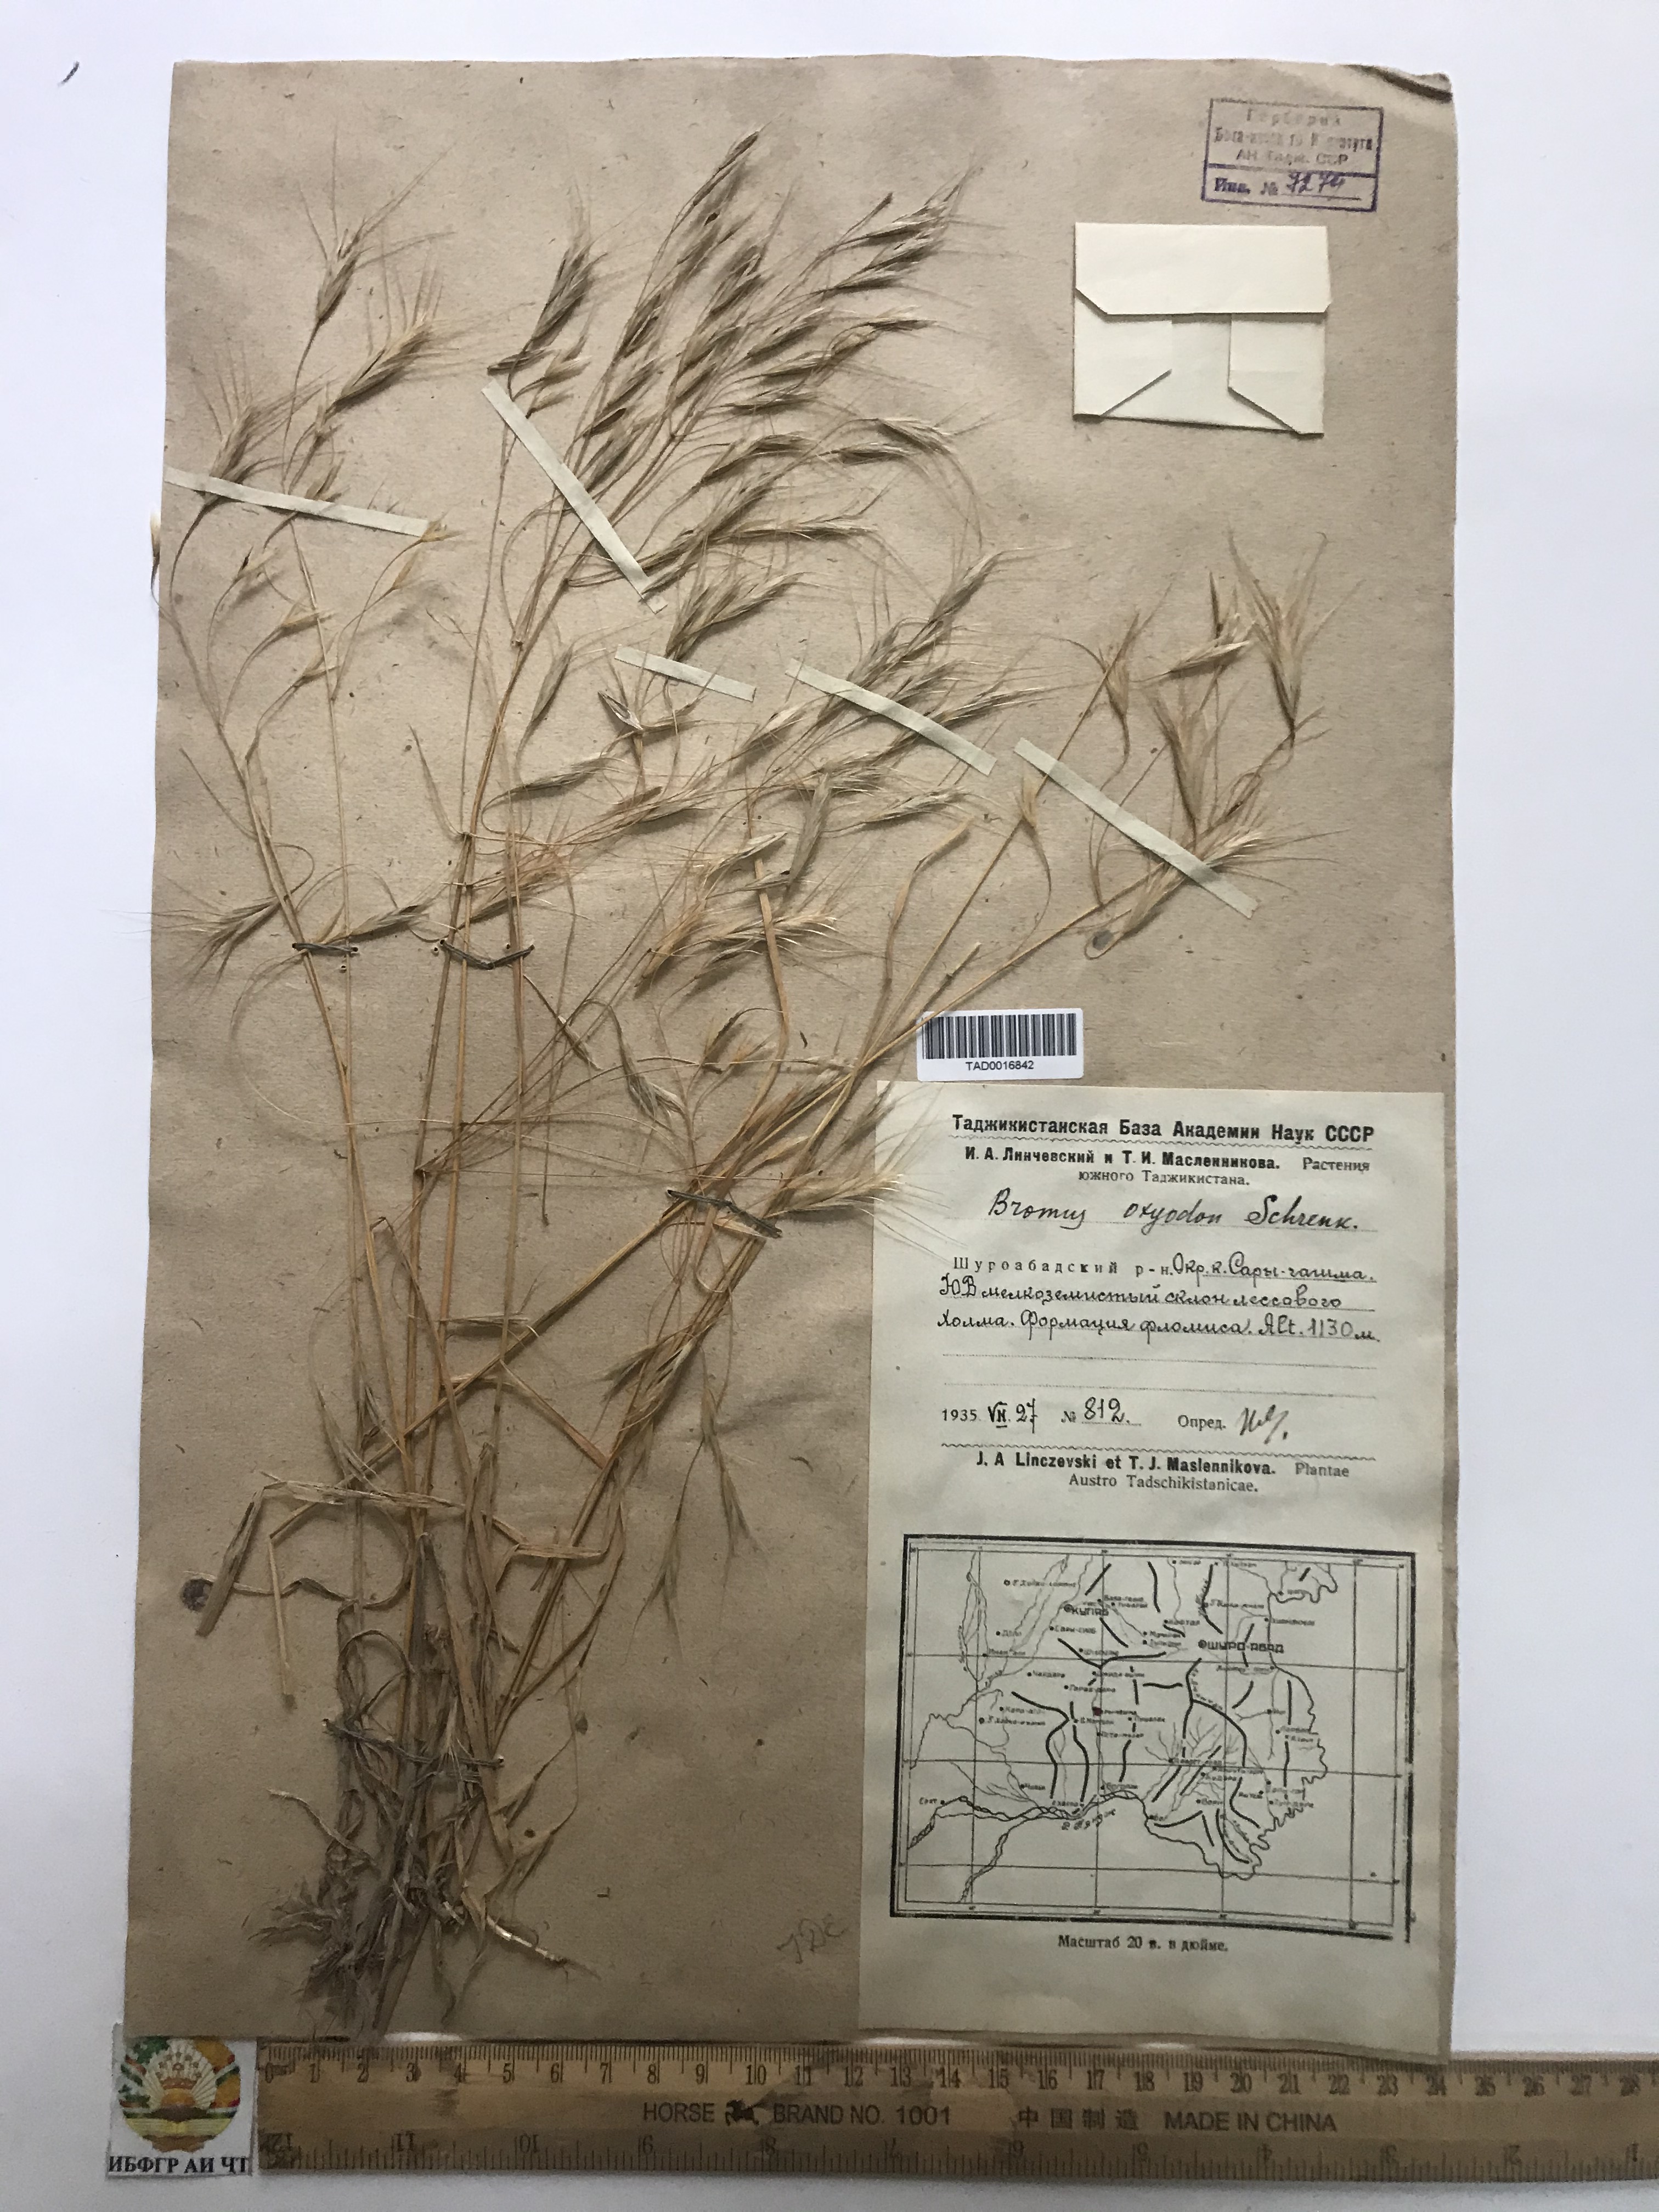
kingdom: Plantae
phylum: Tracheophyta
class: Liliopsida
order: Poales
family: Poaceae
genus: Bromus
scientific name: Bromus oxyodon
